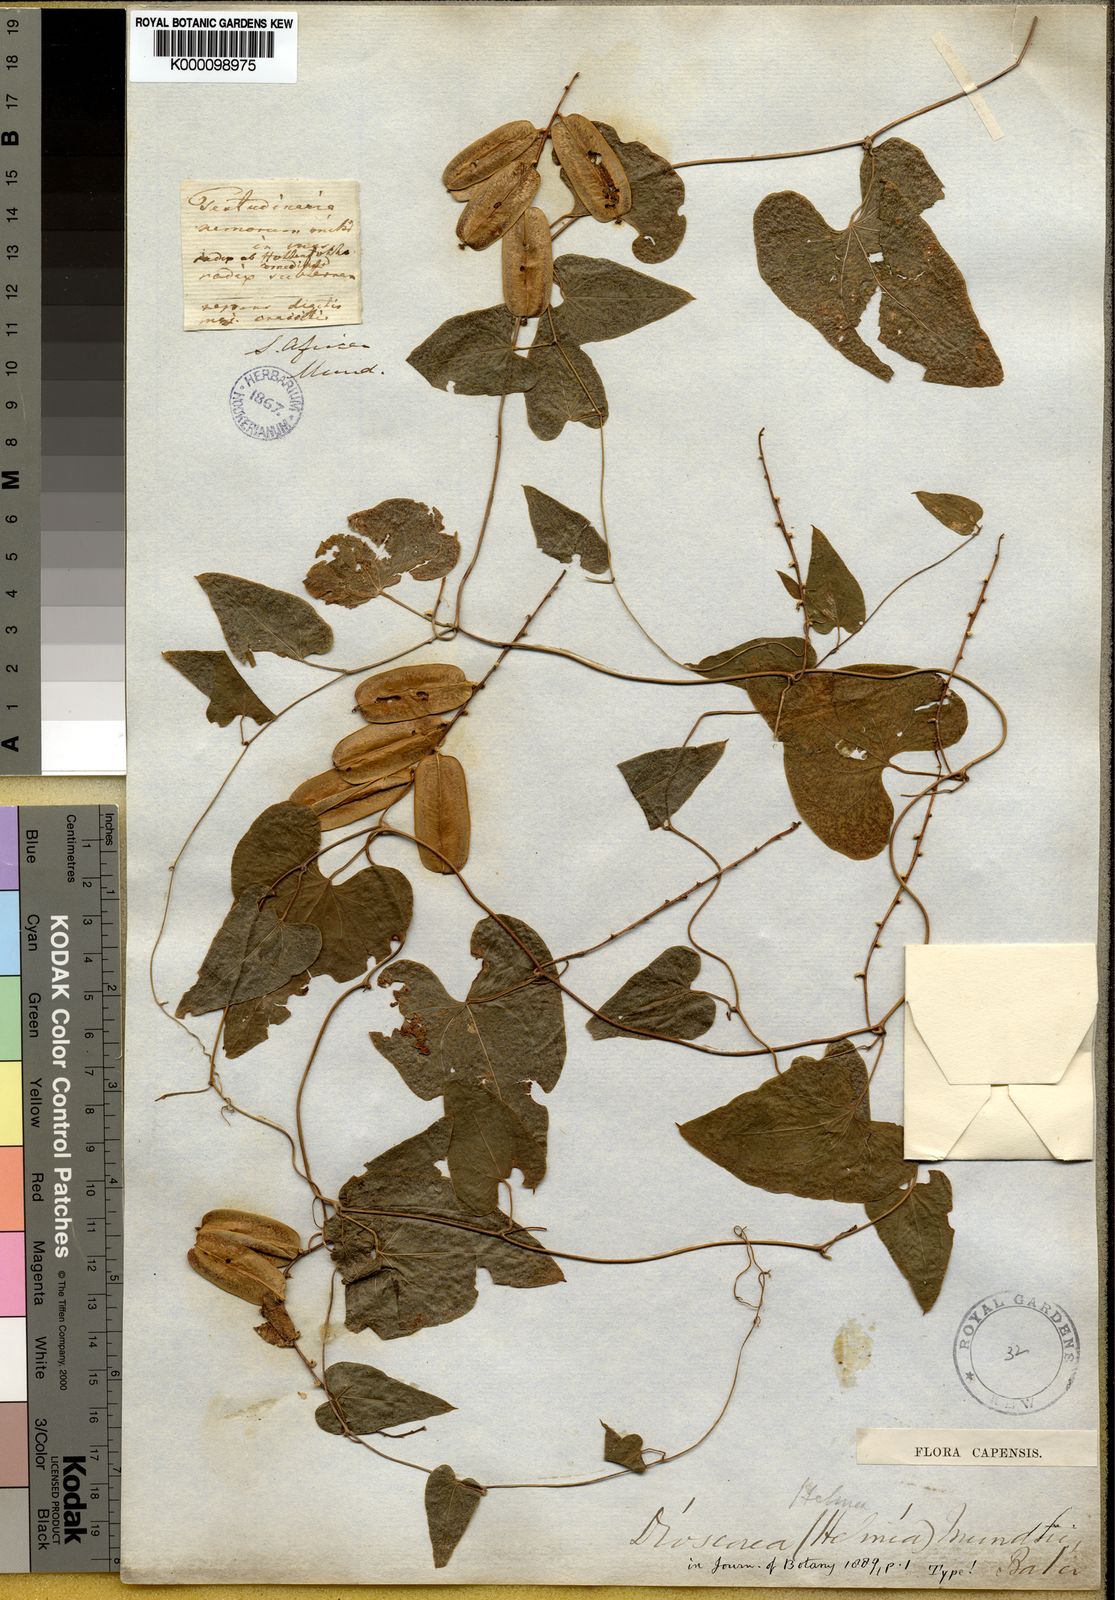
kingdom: Plantae
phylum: Tracheophyta
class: Liliopsida
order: Dioscoreales
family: Dioscoreaceae
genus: Dioscorea
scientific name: Dioscorea
